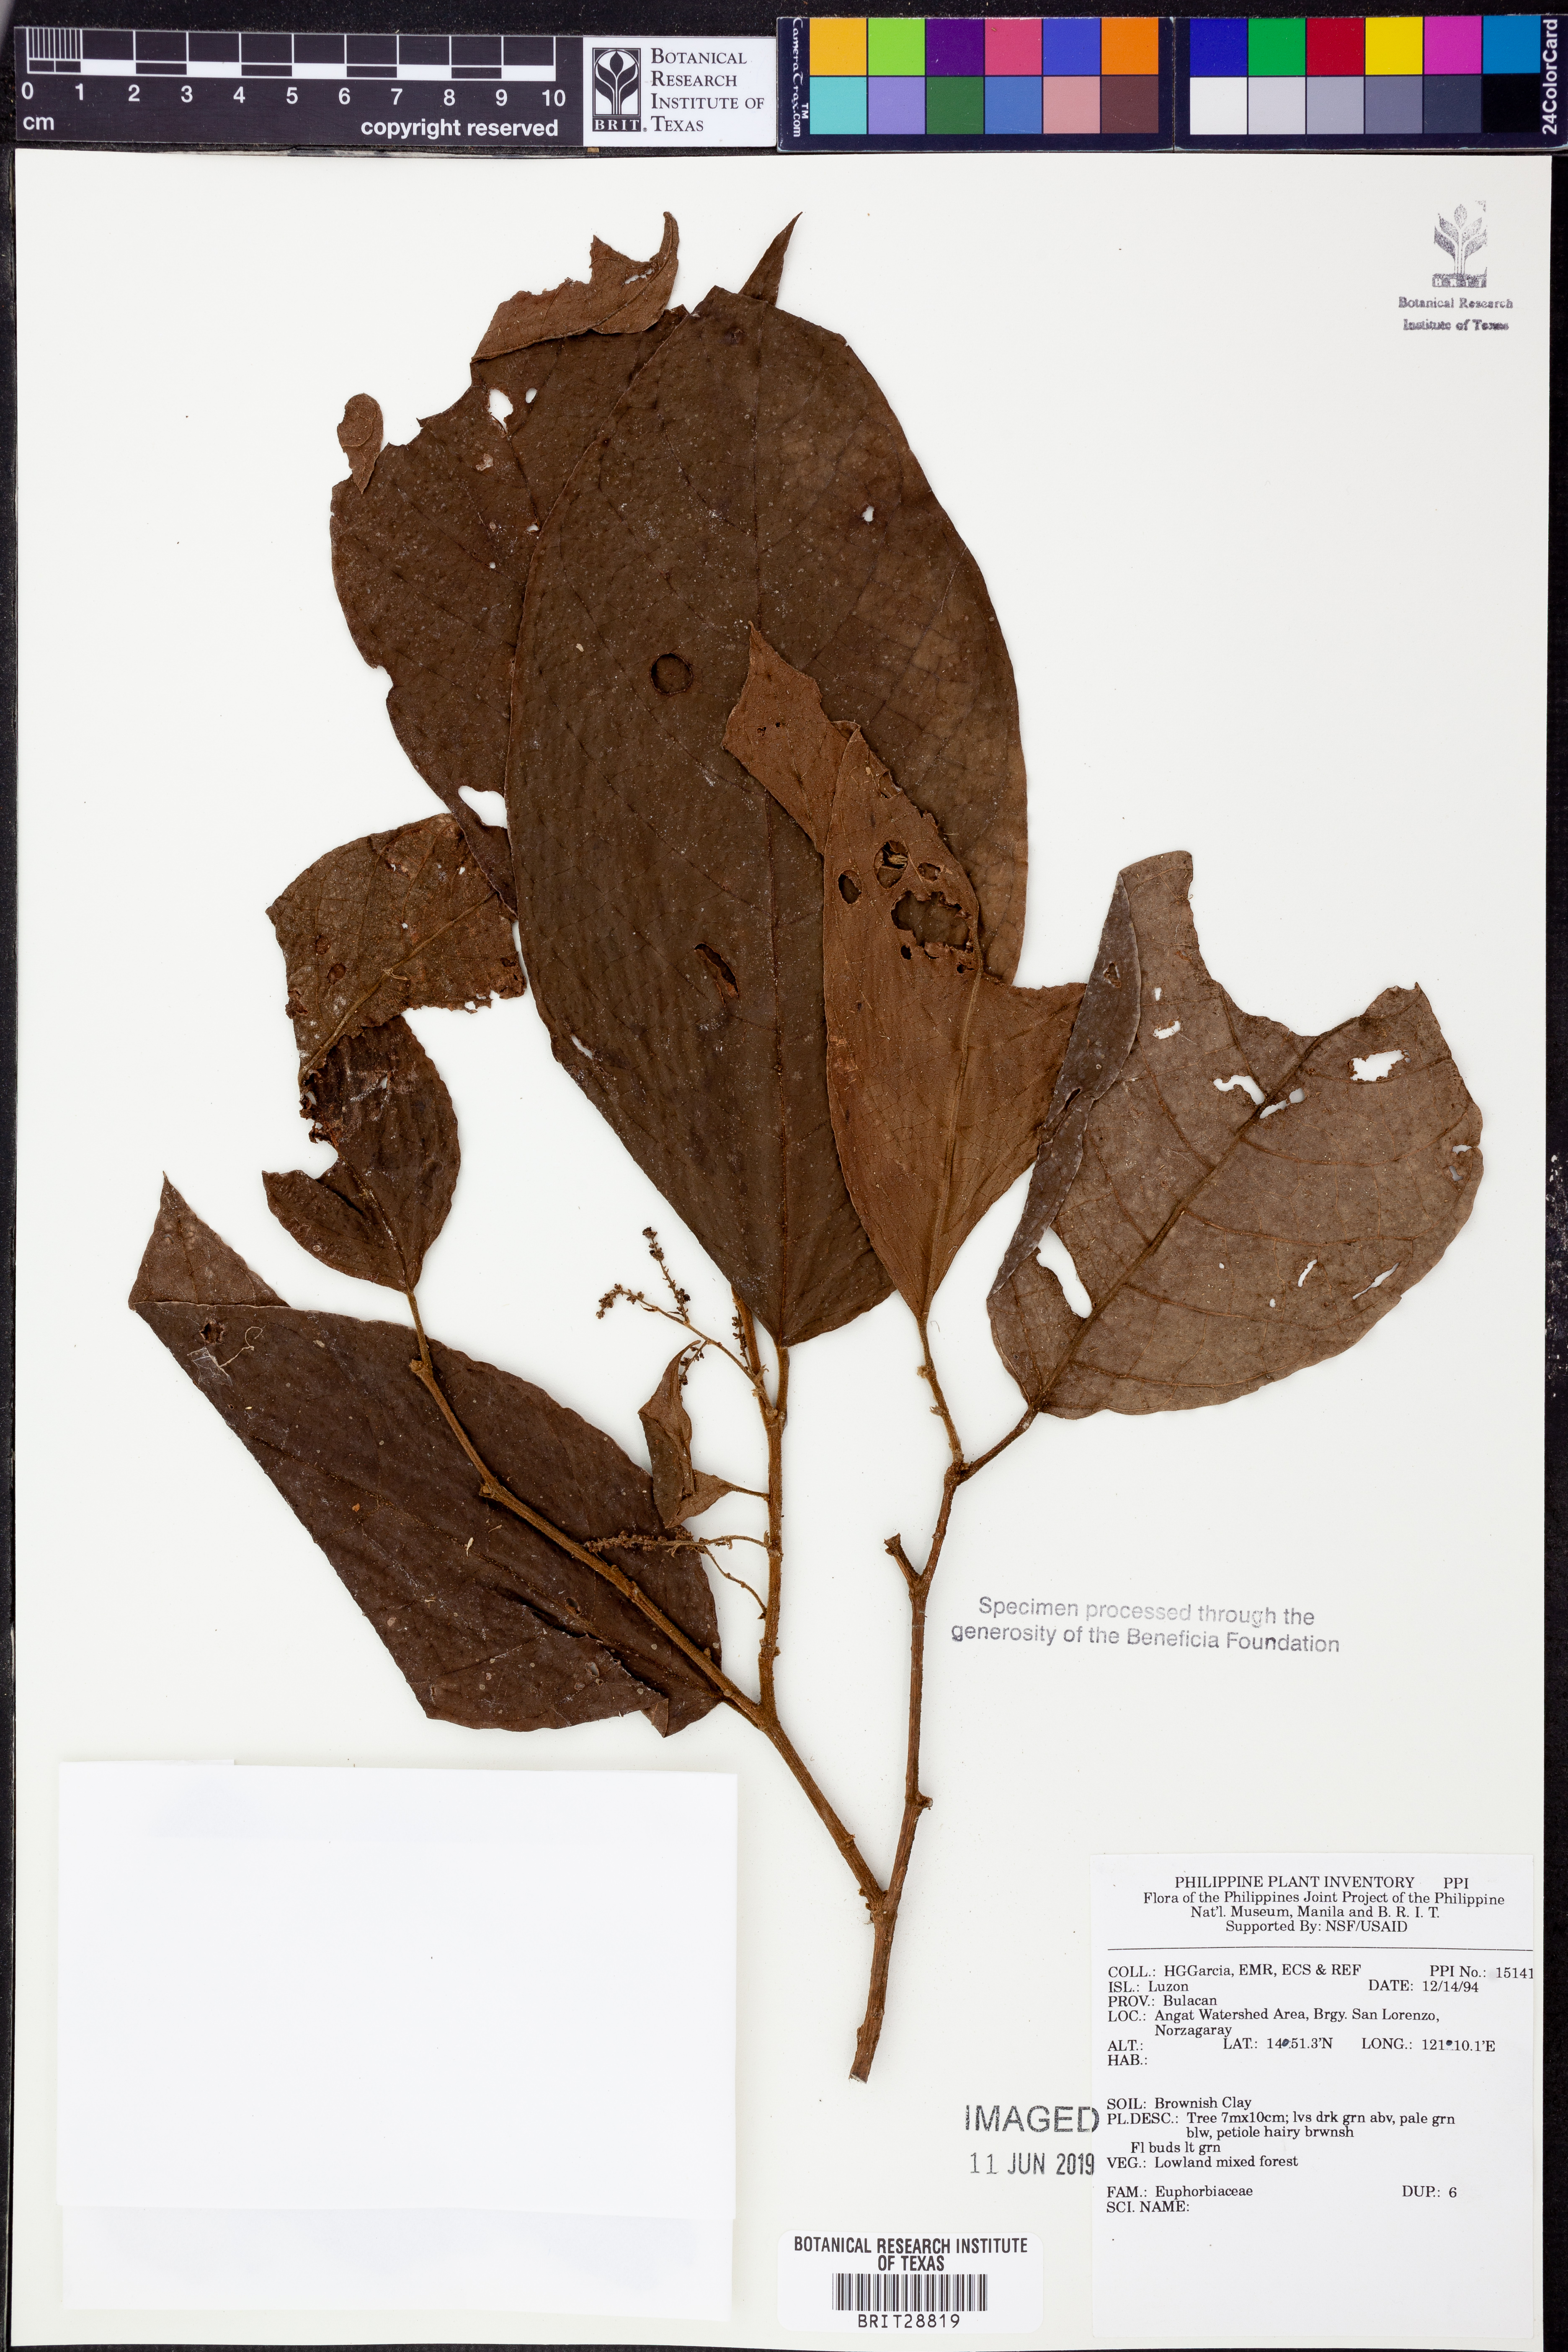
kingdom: Plantae
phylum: Tracheophyta
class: Magnoliopsida
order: Malpighiales
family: Euphorbiaceae
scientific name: Euphorbiaceae
